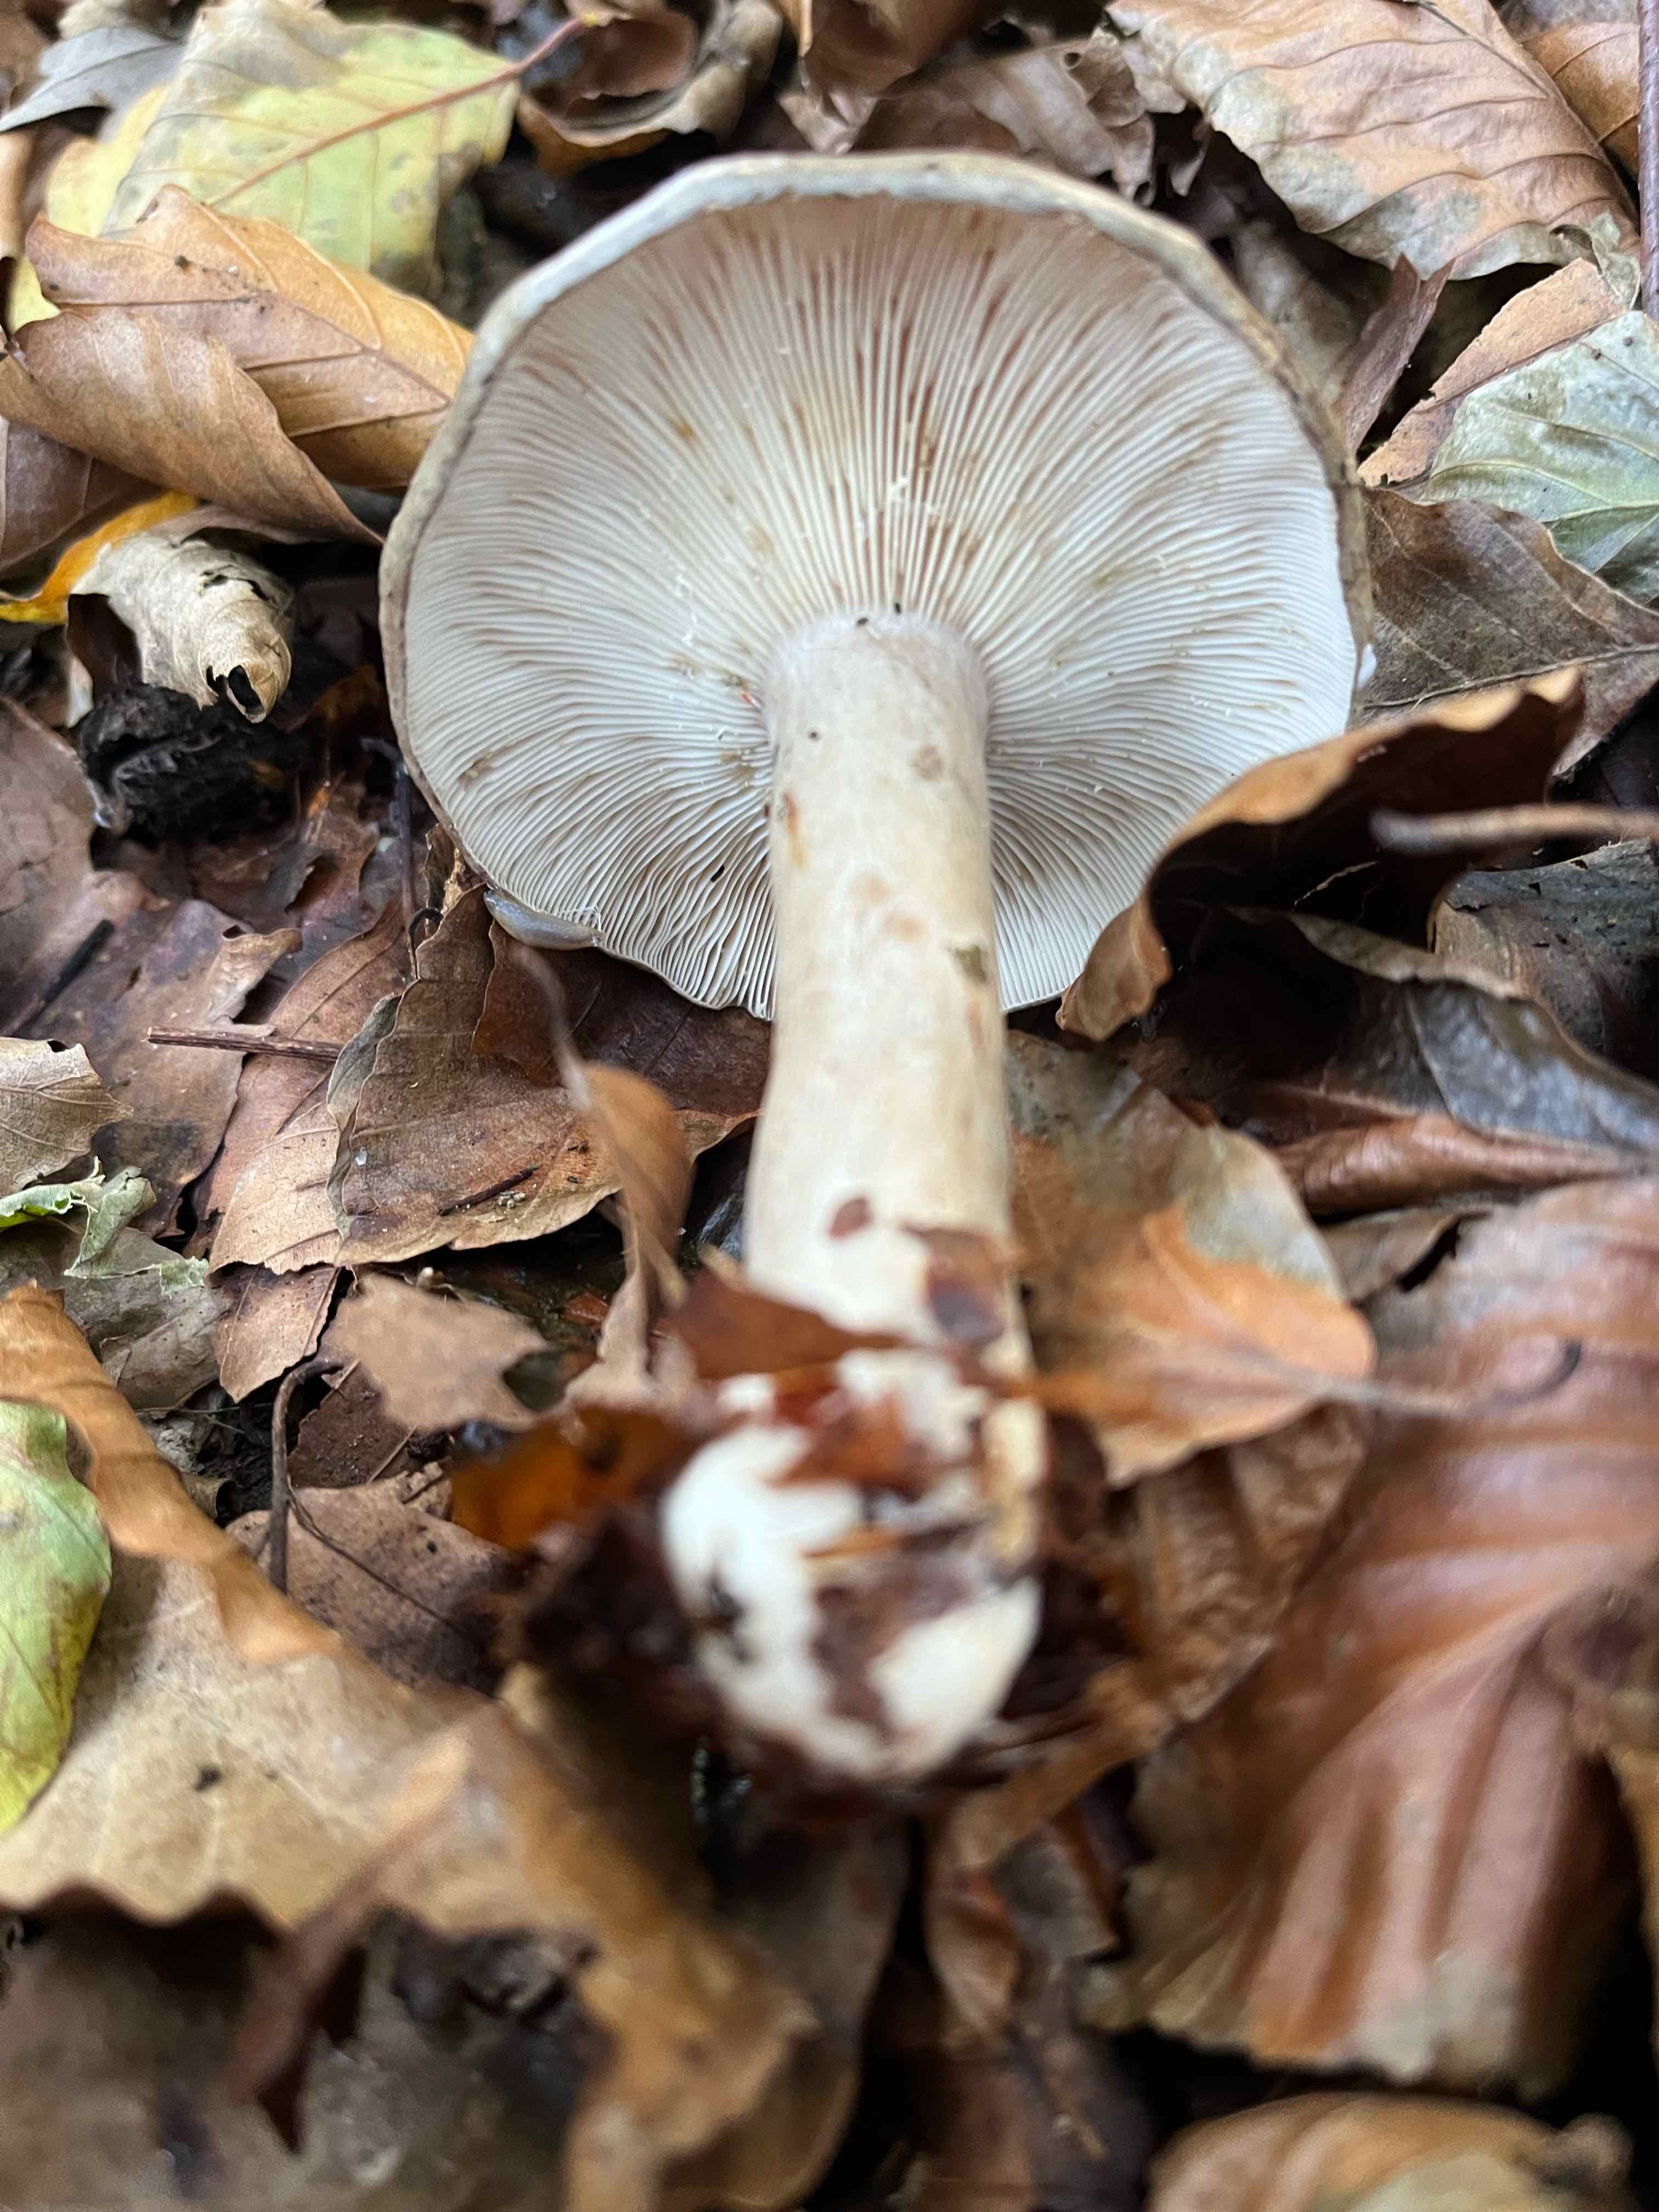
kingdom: Fungi
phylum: Basidiomycota
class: Agaricomycetes
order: Russulales
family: Russulaceae
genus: Lactarius
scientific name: Lactarius blennius
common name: dråbeplettet mælkehat
